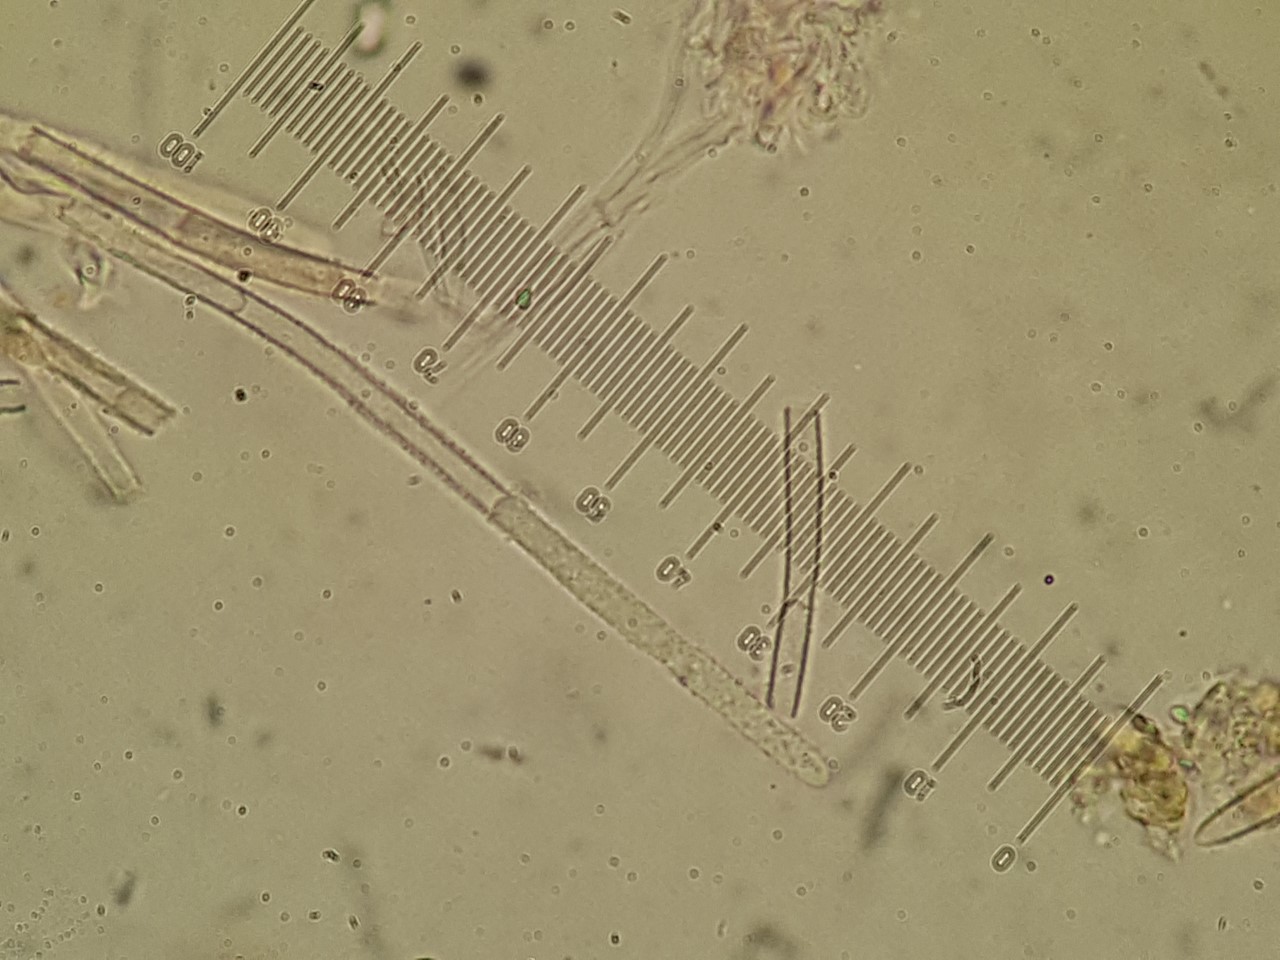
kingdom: Fungi
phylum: Ascomycota
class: Leotiomycetes
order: Helotiales
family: Lachnaceae
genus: Lachnum
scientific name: Lachnum virgineum
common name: jomfru-frynseskive
